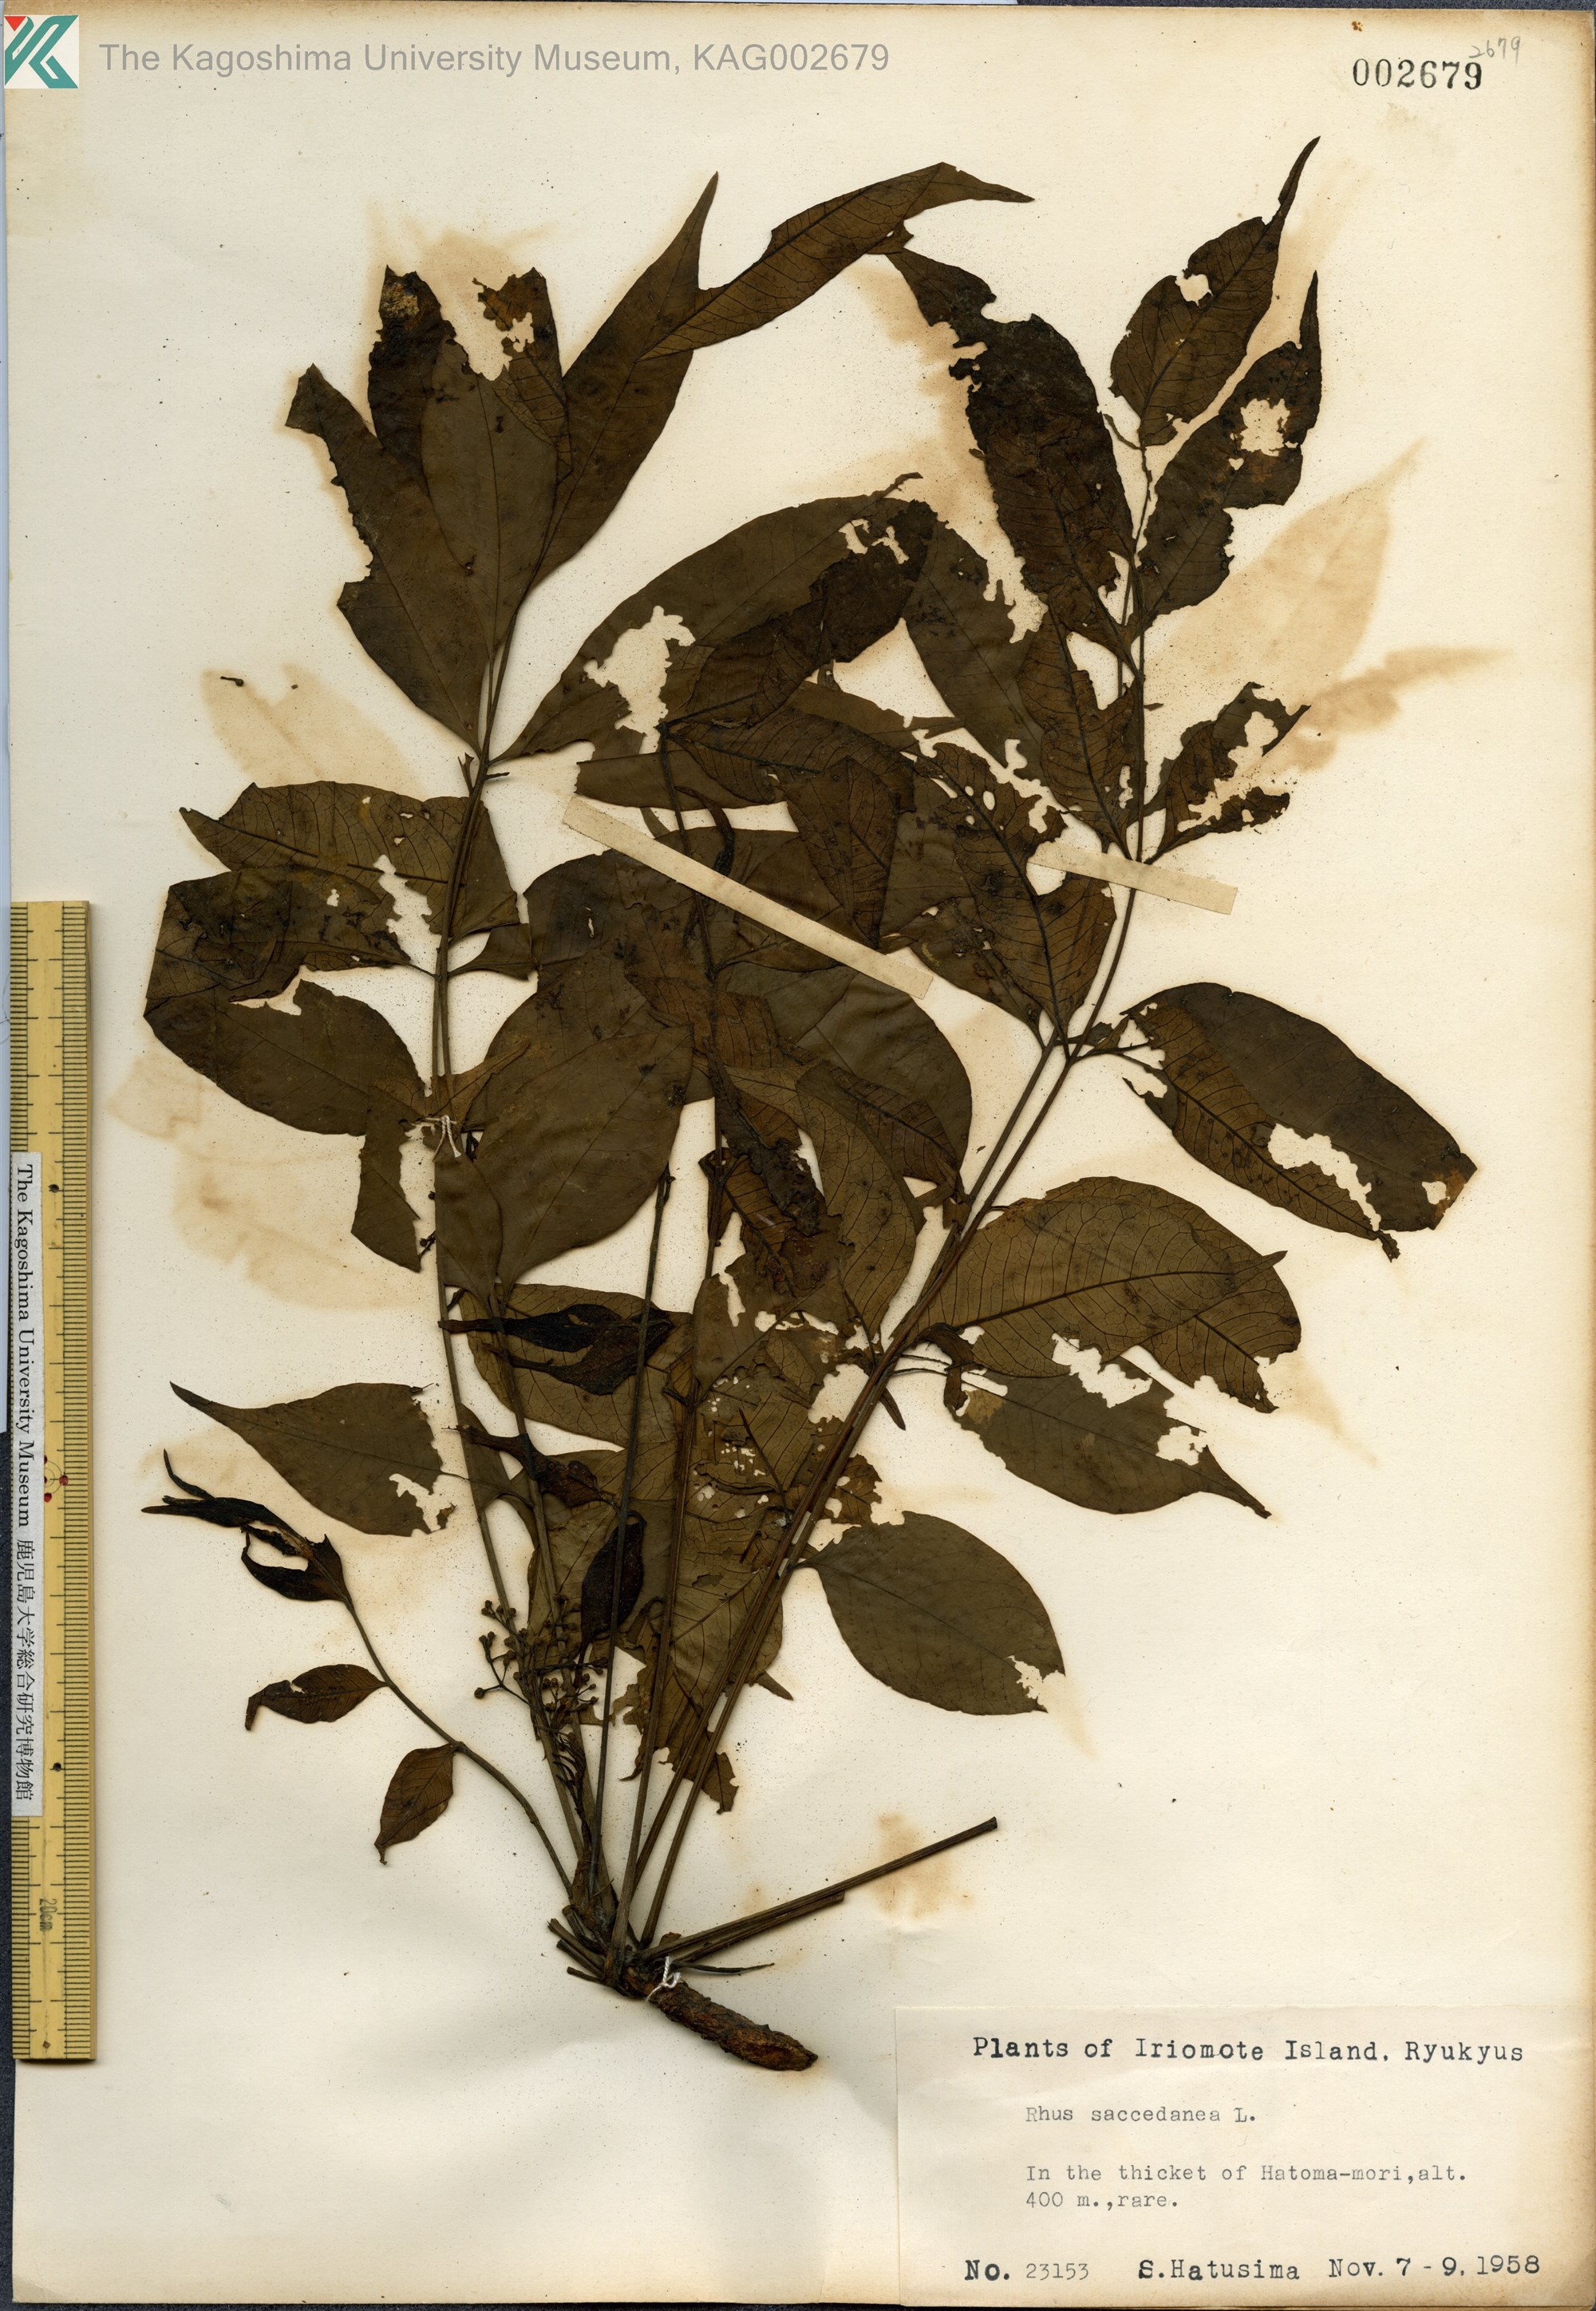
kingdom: Plantae
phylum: Tracheophyta
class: Magnoliopsida
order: Sapindales
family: Anacardiaceae
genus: Toxicodendron
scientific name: Toxicodendron succedaneum
